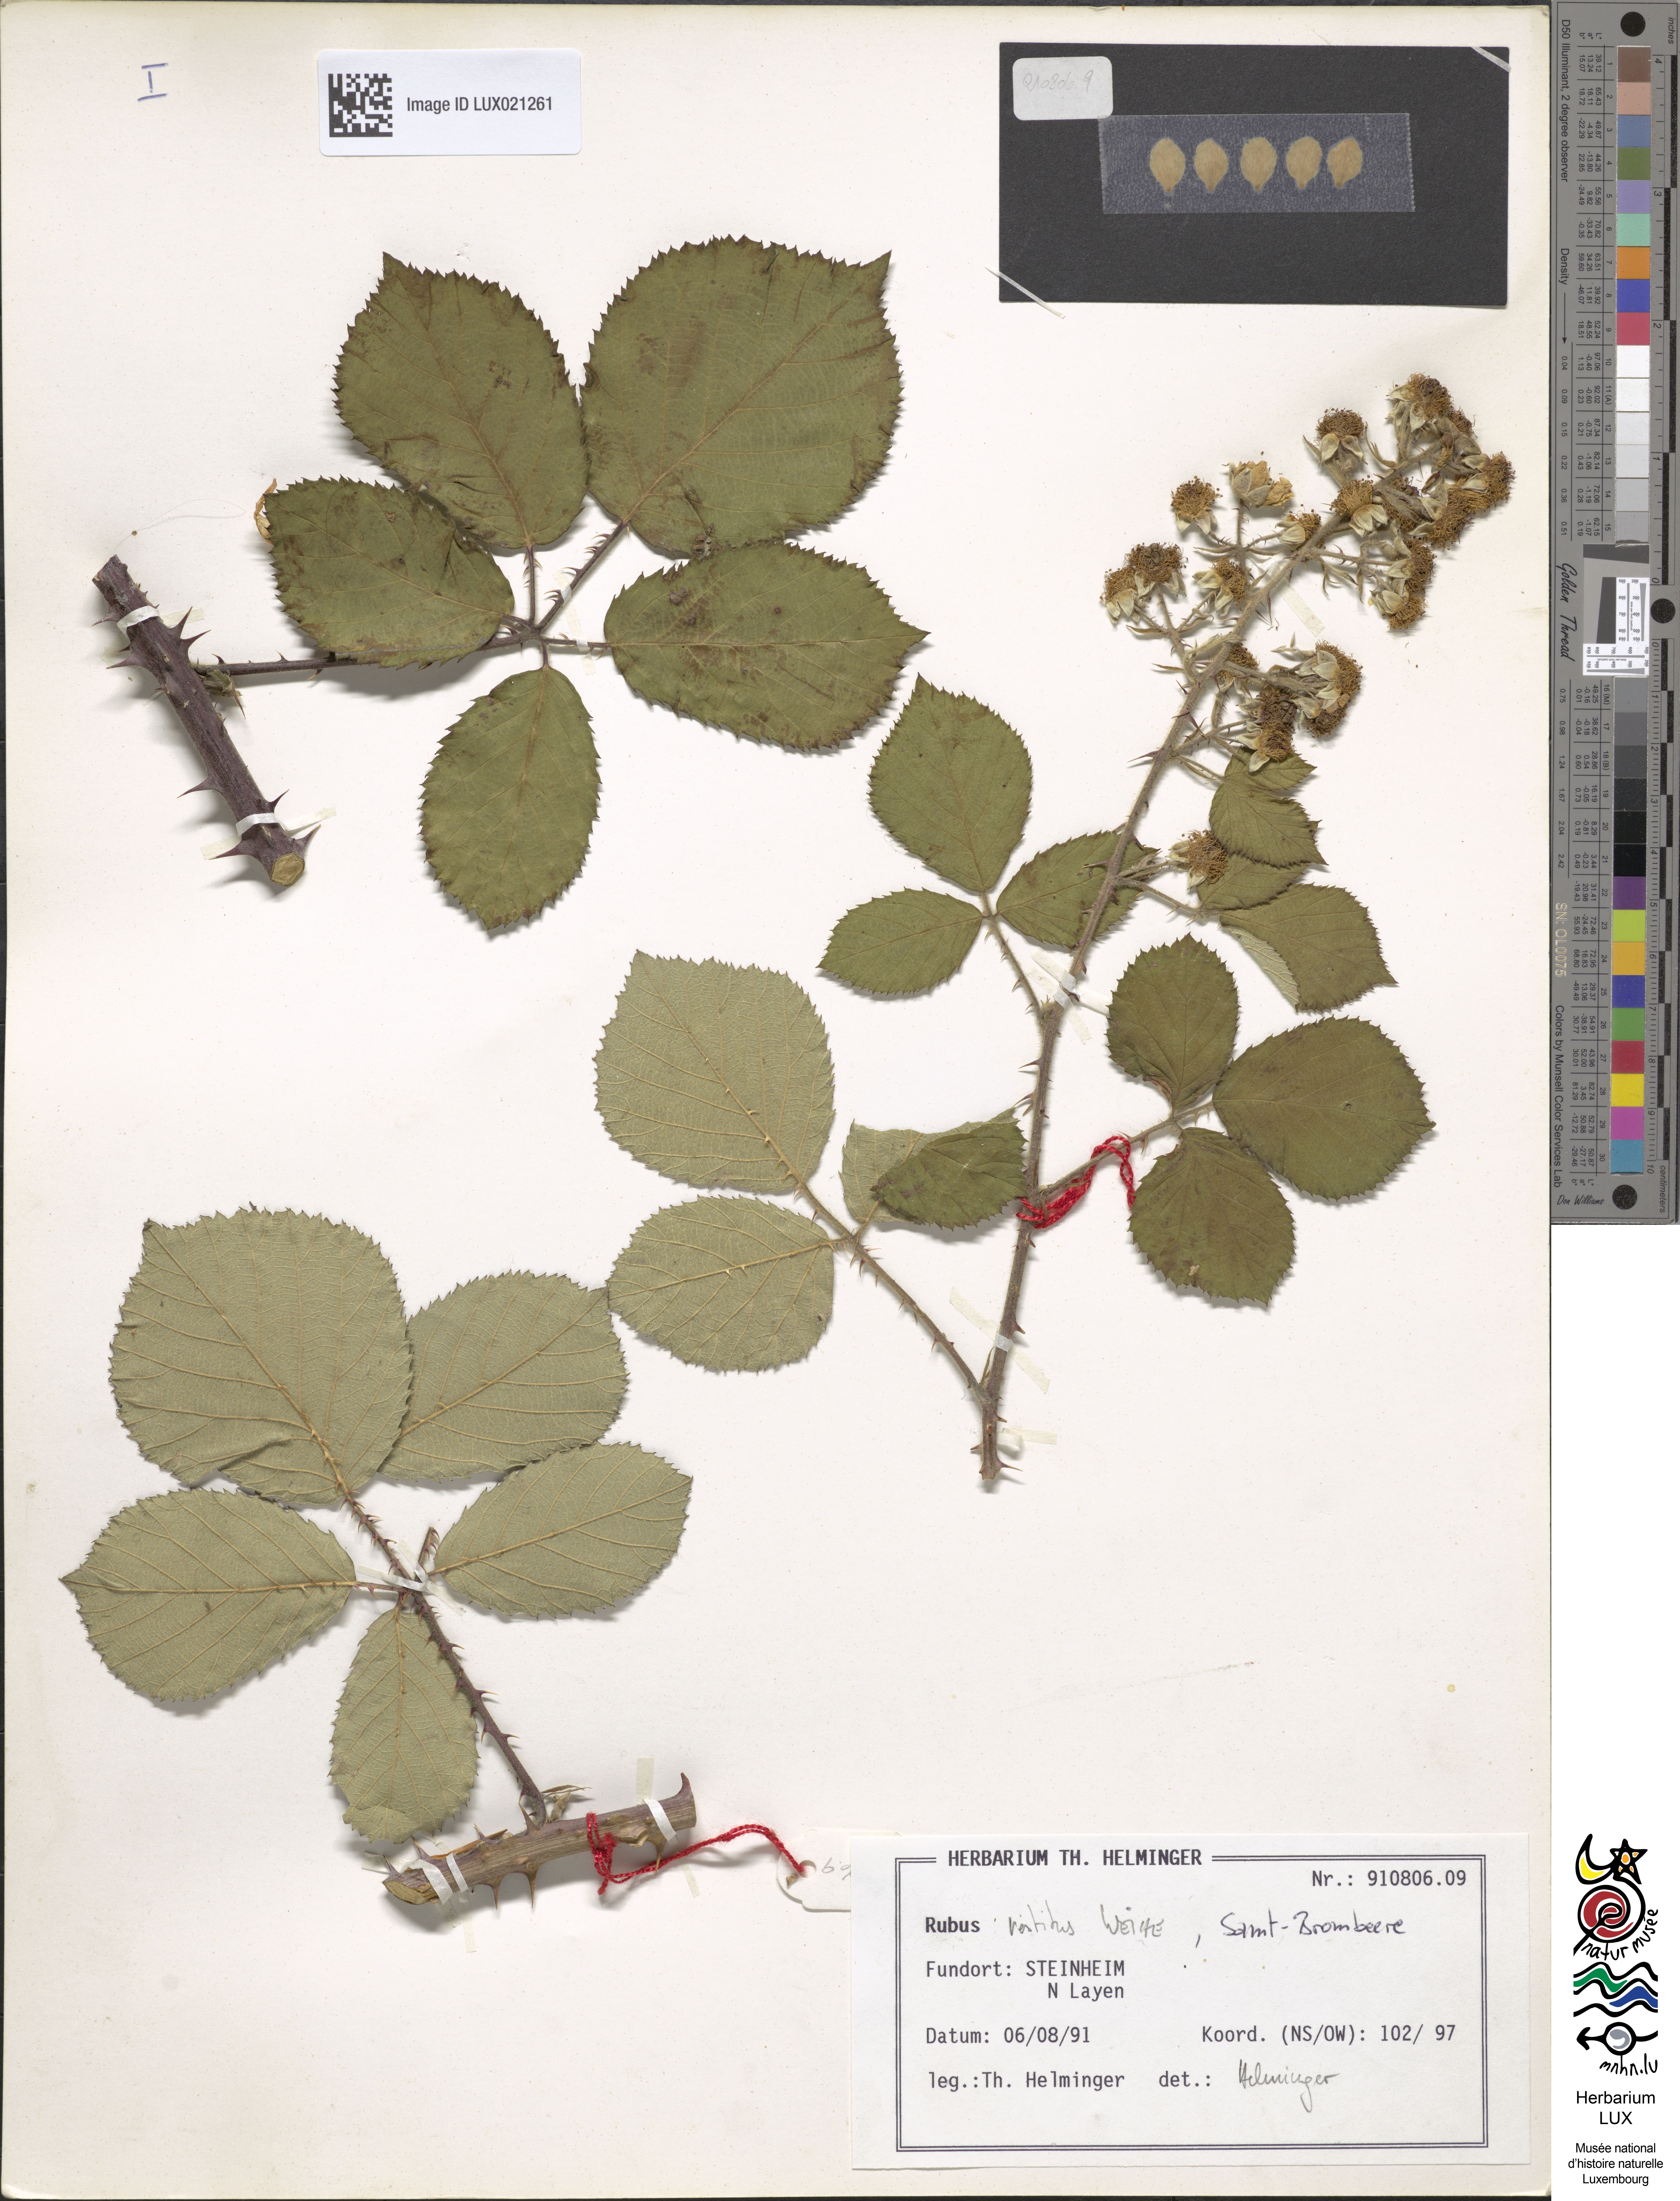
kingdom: Plantae
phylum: Tracheophyta
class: Magnoliopsida
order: Rosales
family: Rosaceae
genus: Rubus
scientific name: Rubus vestitus
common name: European blackberry
